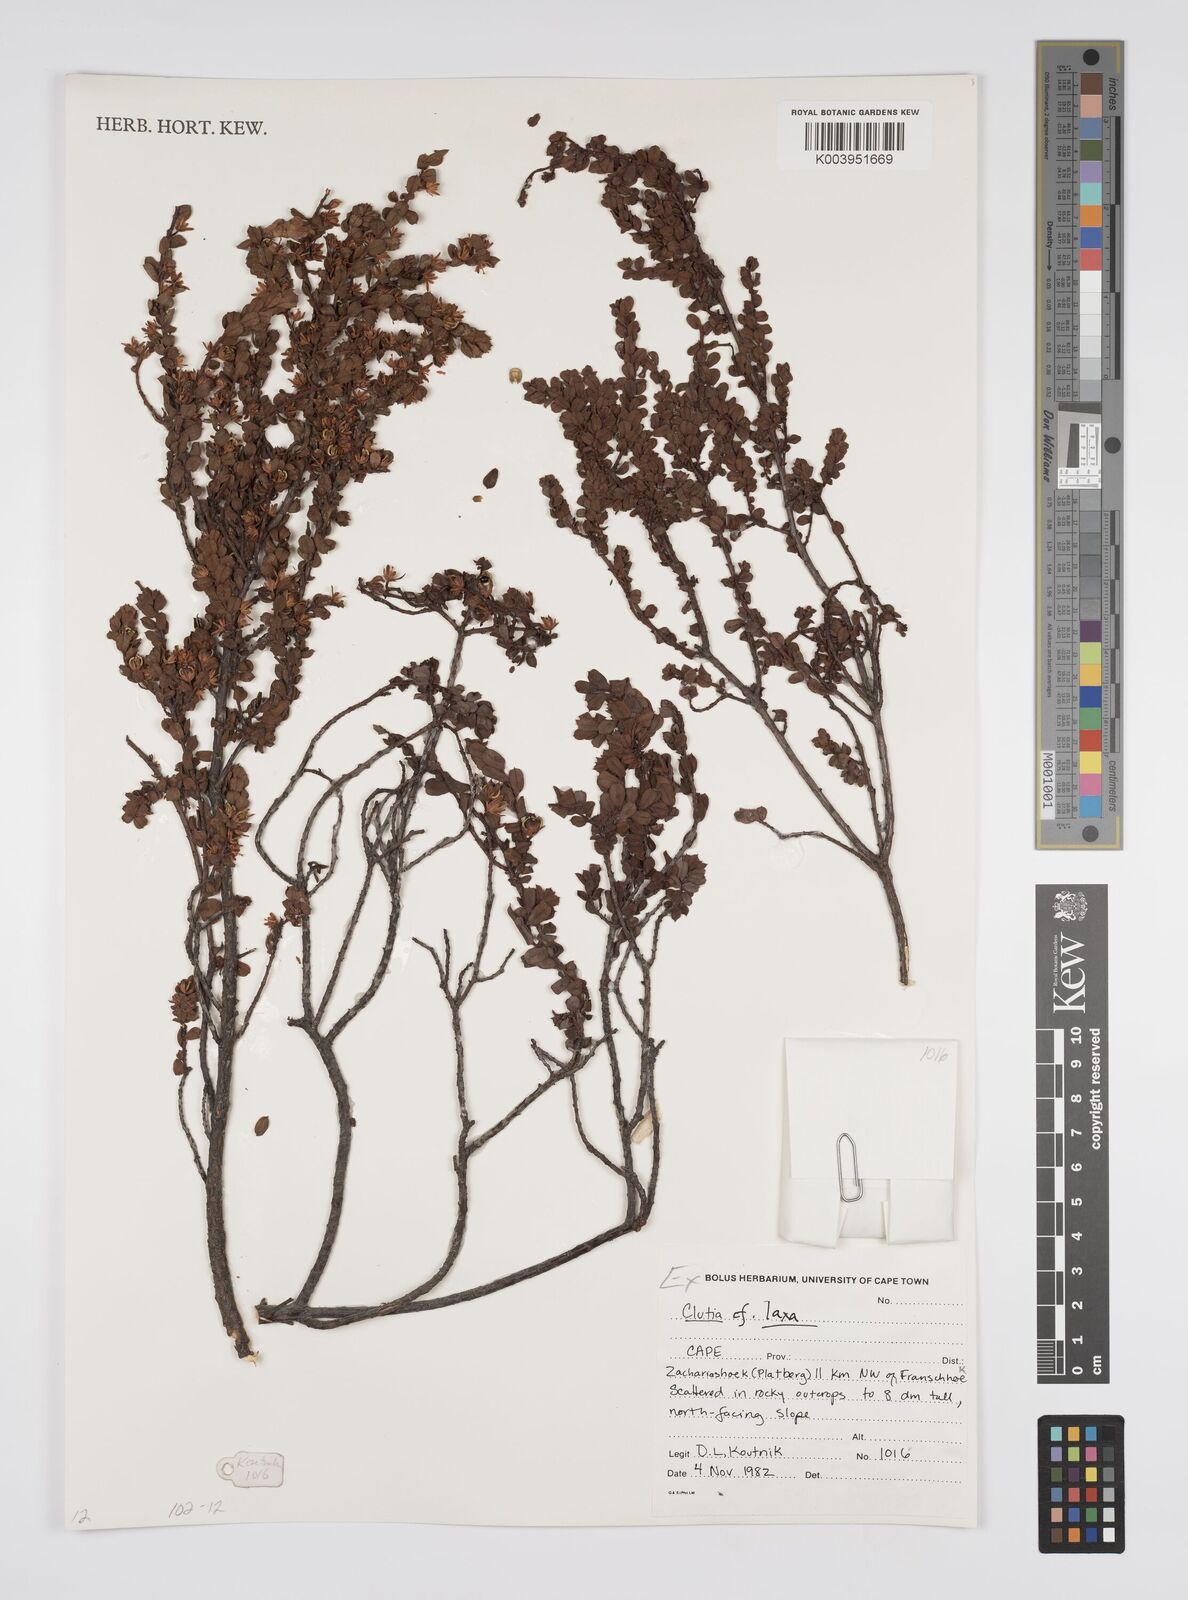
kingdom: Plantae
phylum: Tracheophyta
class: Magnoliopsida
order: Malpighiales
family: Peraceae
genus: Clutia
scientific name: Clutia laxa
